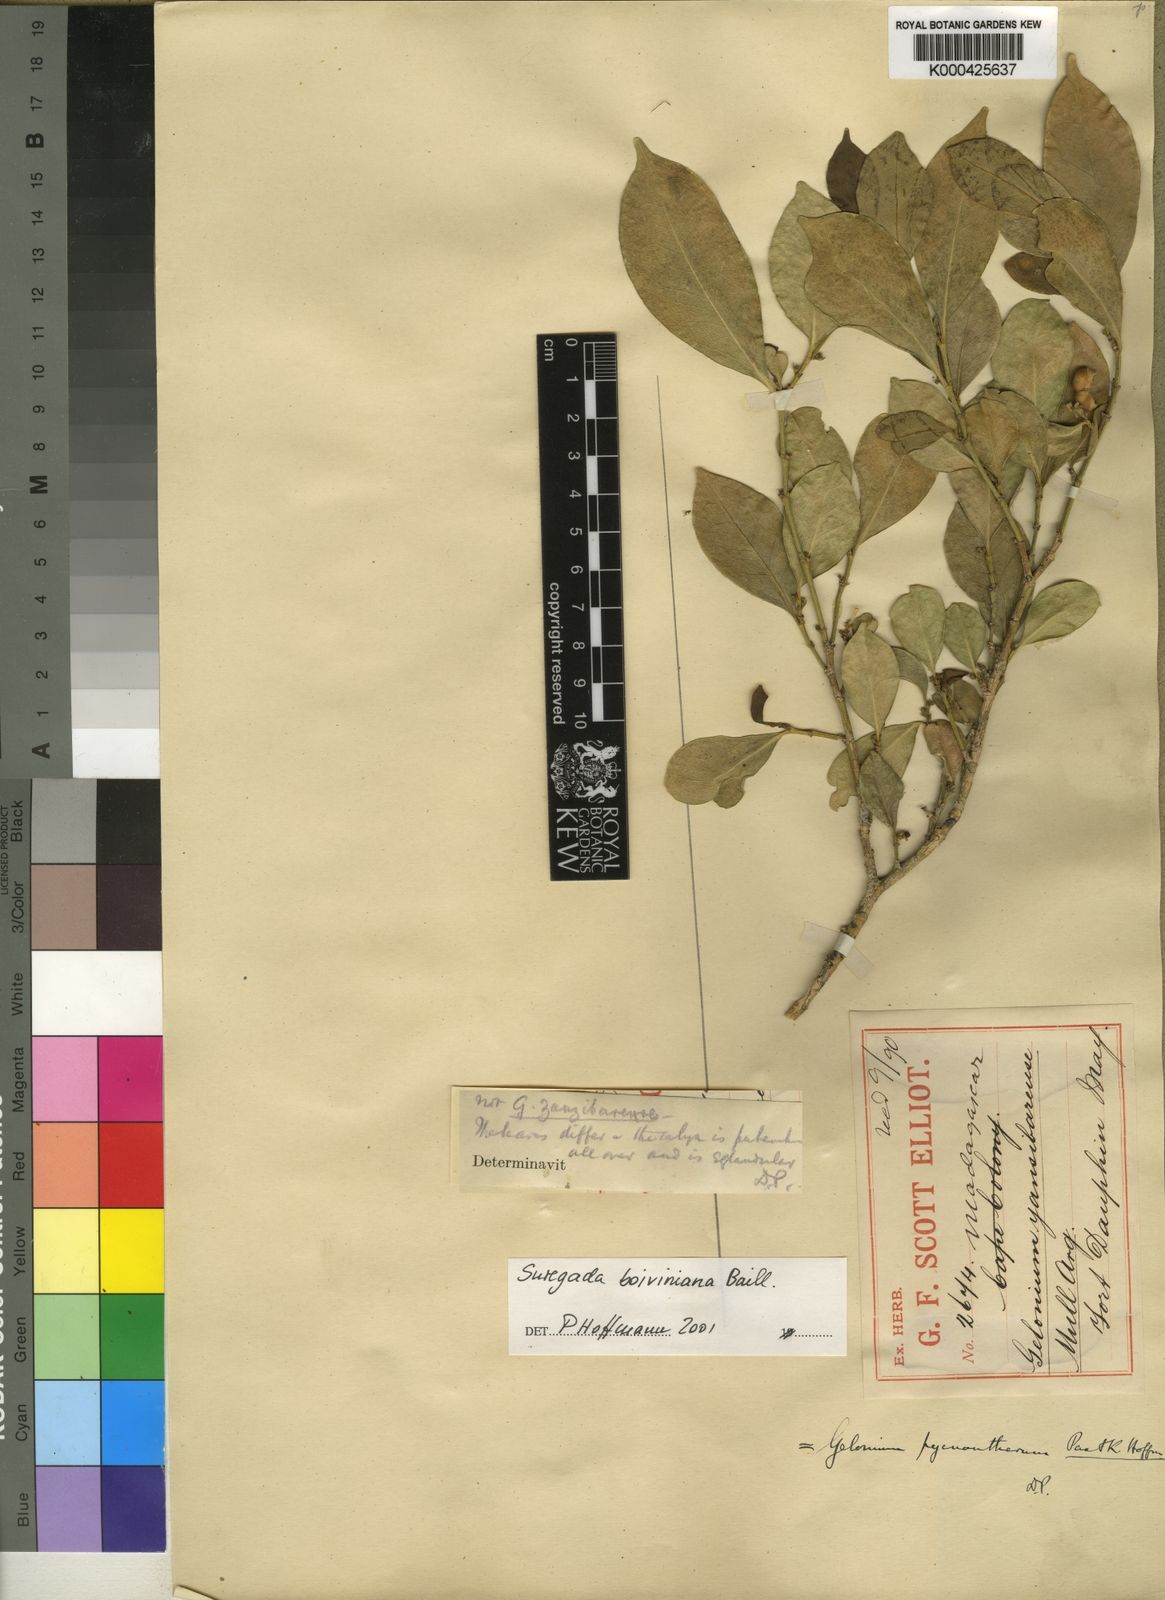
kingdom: Plantae
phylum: Tracheophyta
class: Magnoliopsida
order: Malpighiales
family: Euphorbiaceae
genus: Suregada
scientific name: Suregada boiviniana
